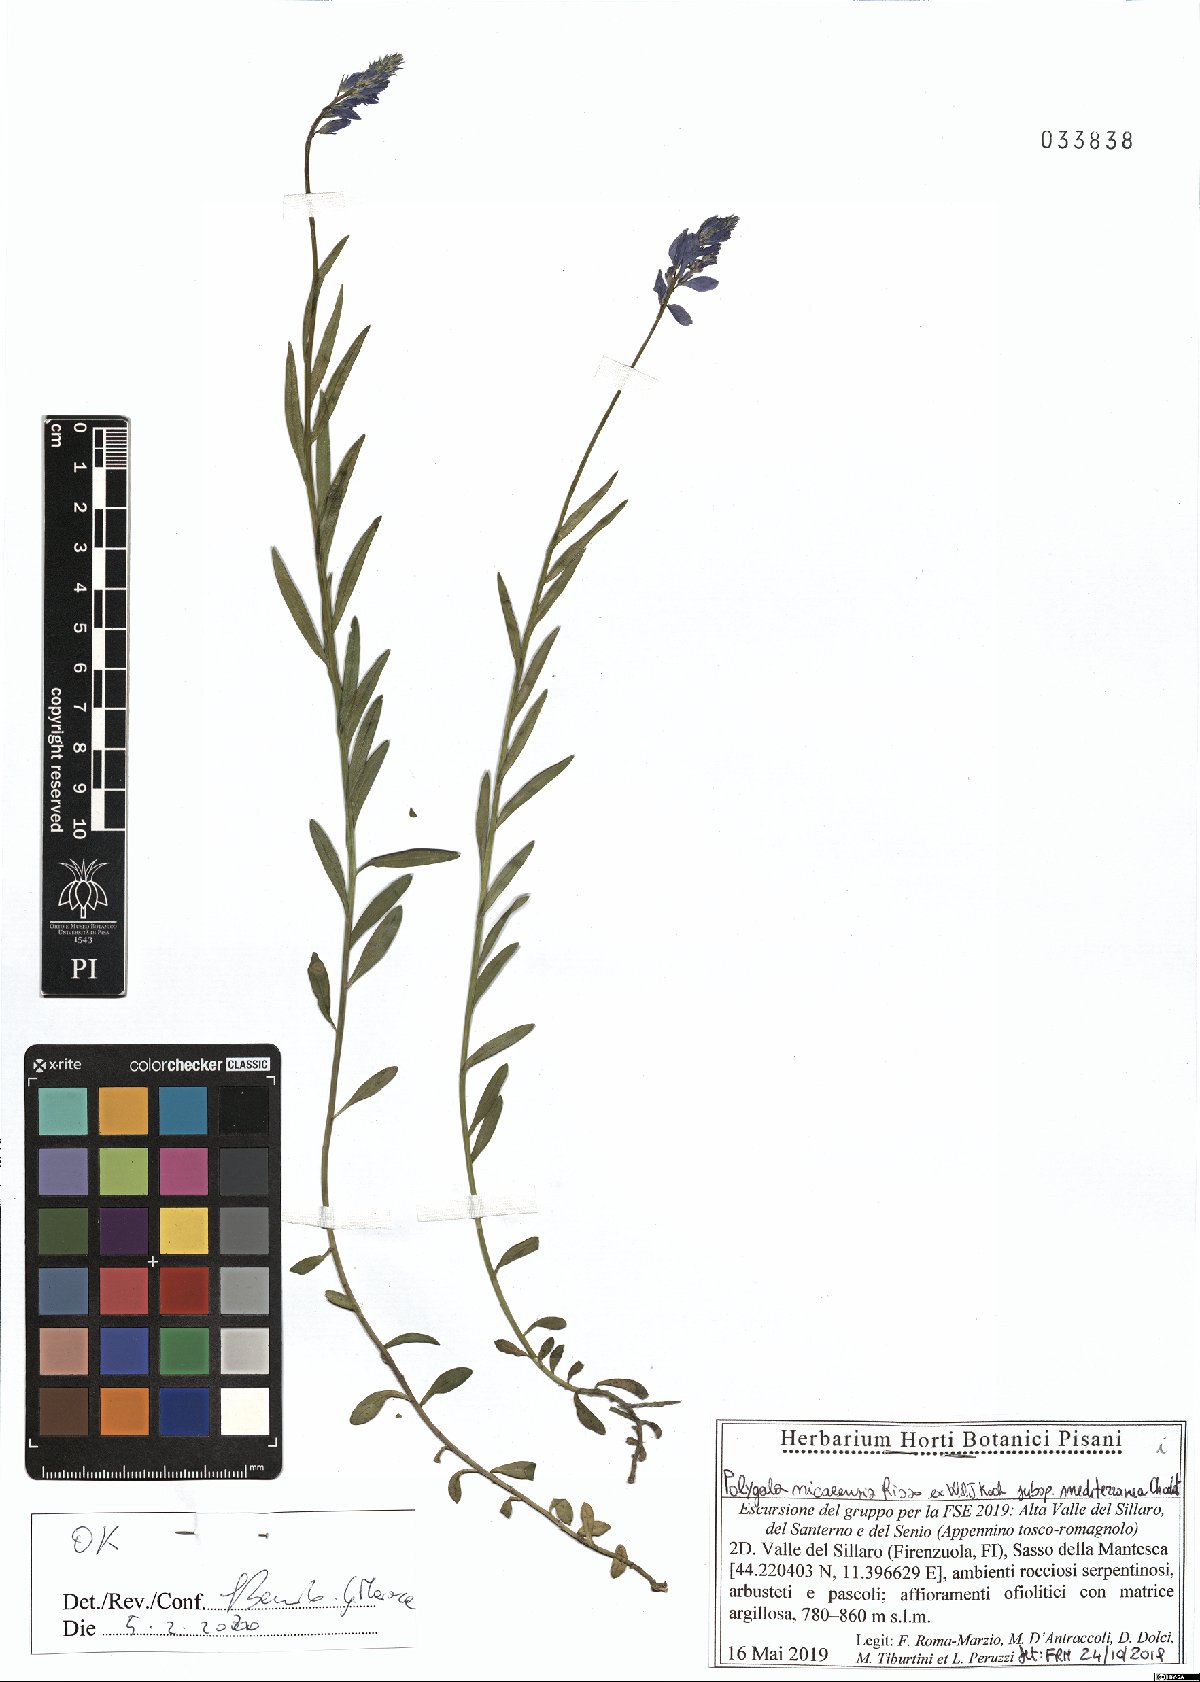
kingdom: Plantae
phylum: Tracheophyta
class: Magnoliopsida
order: Fabales
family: Polygalaceae
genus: Polygala
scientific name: Polygala nicaeensis
